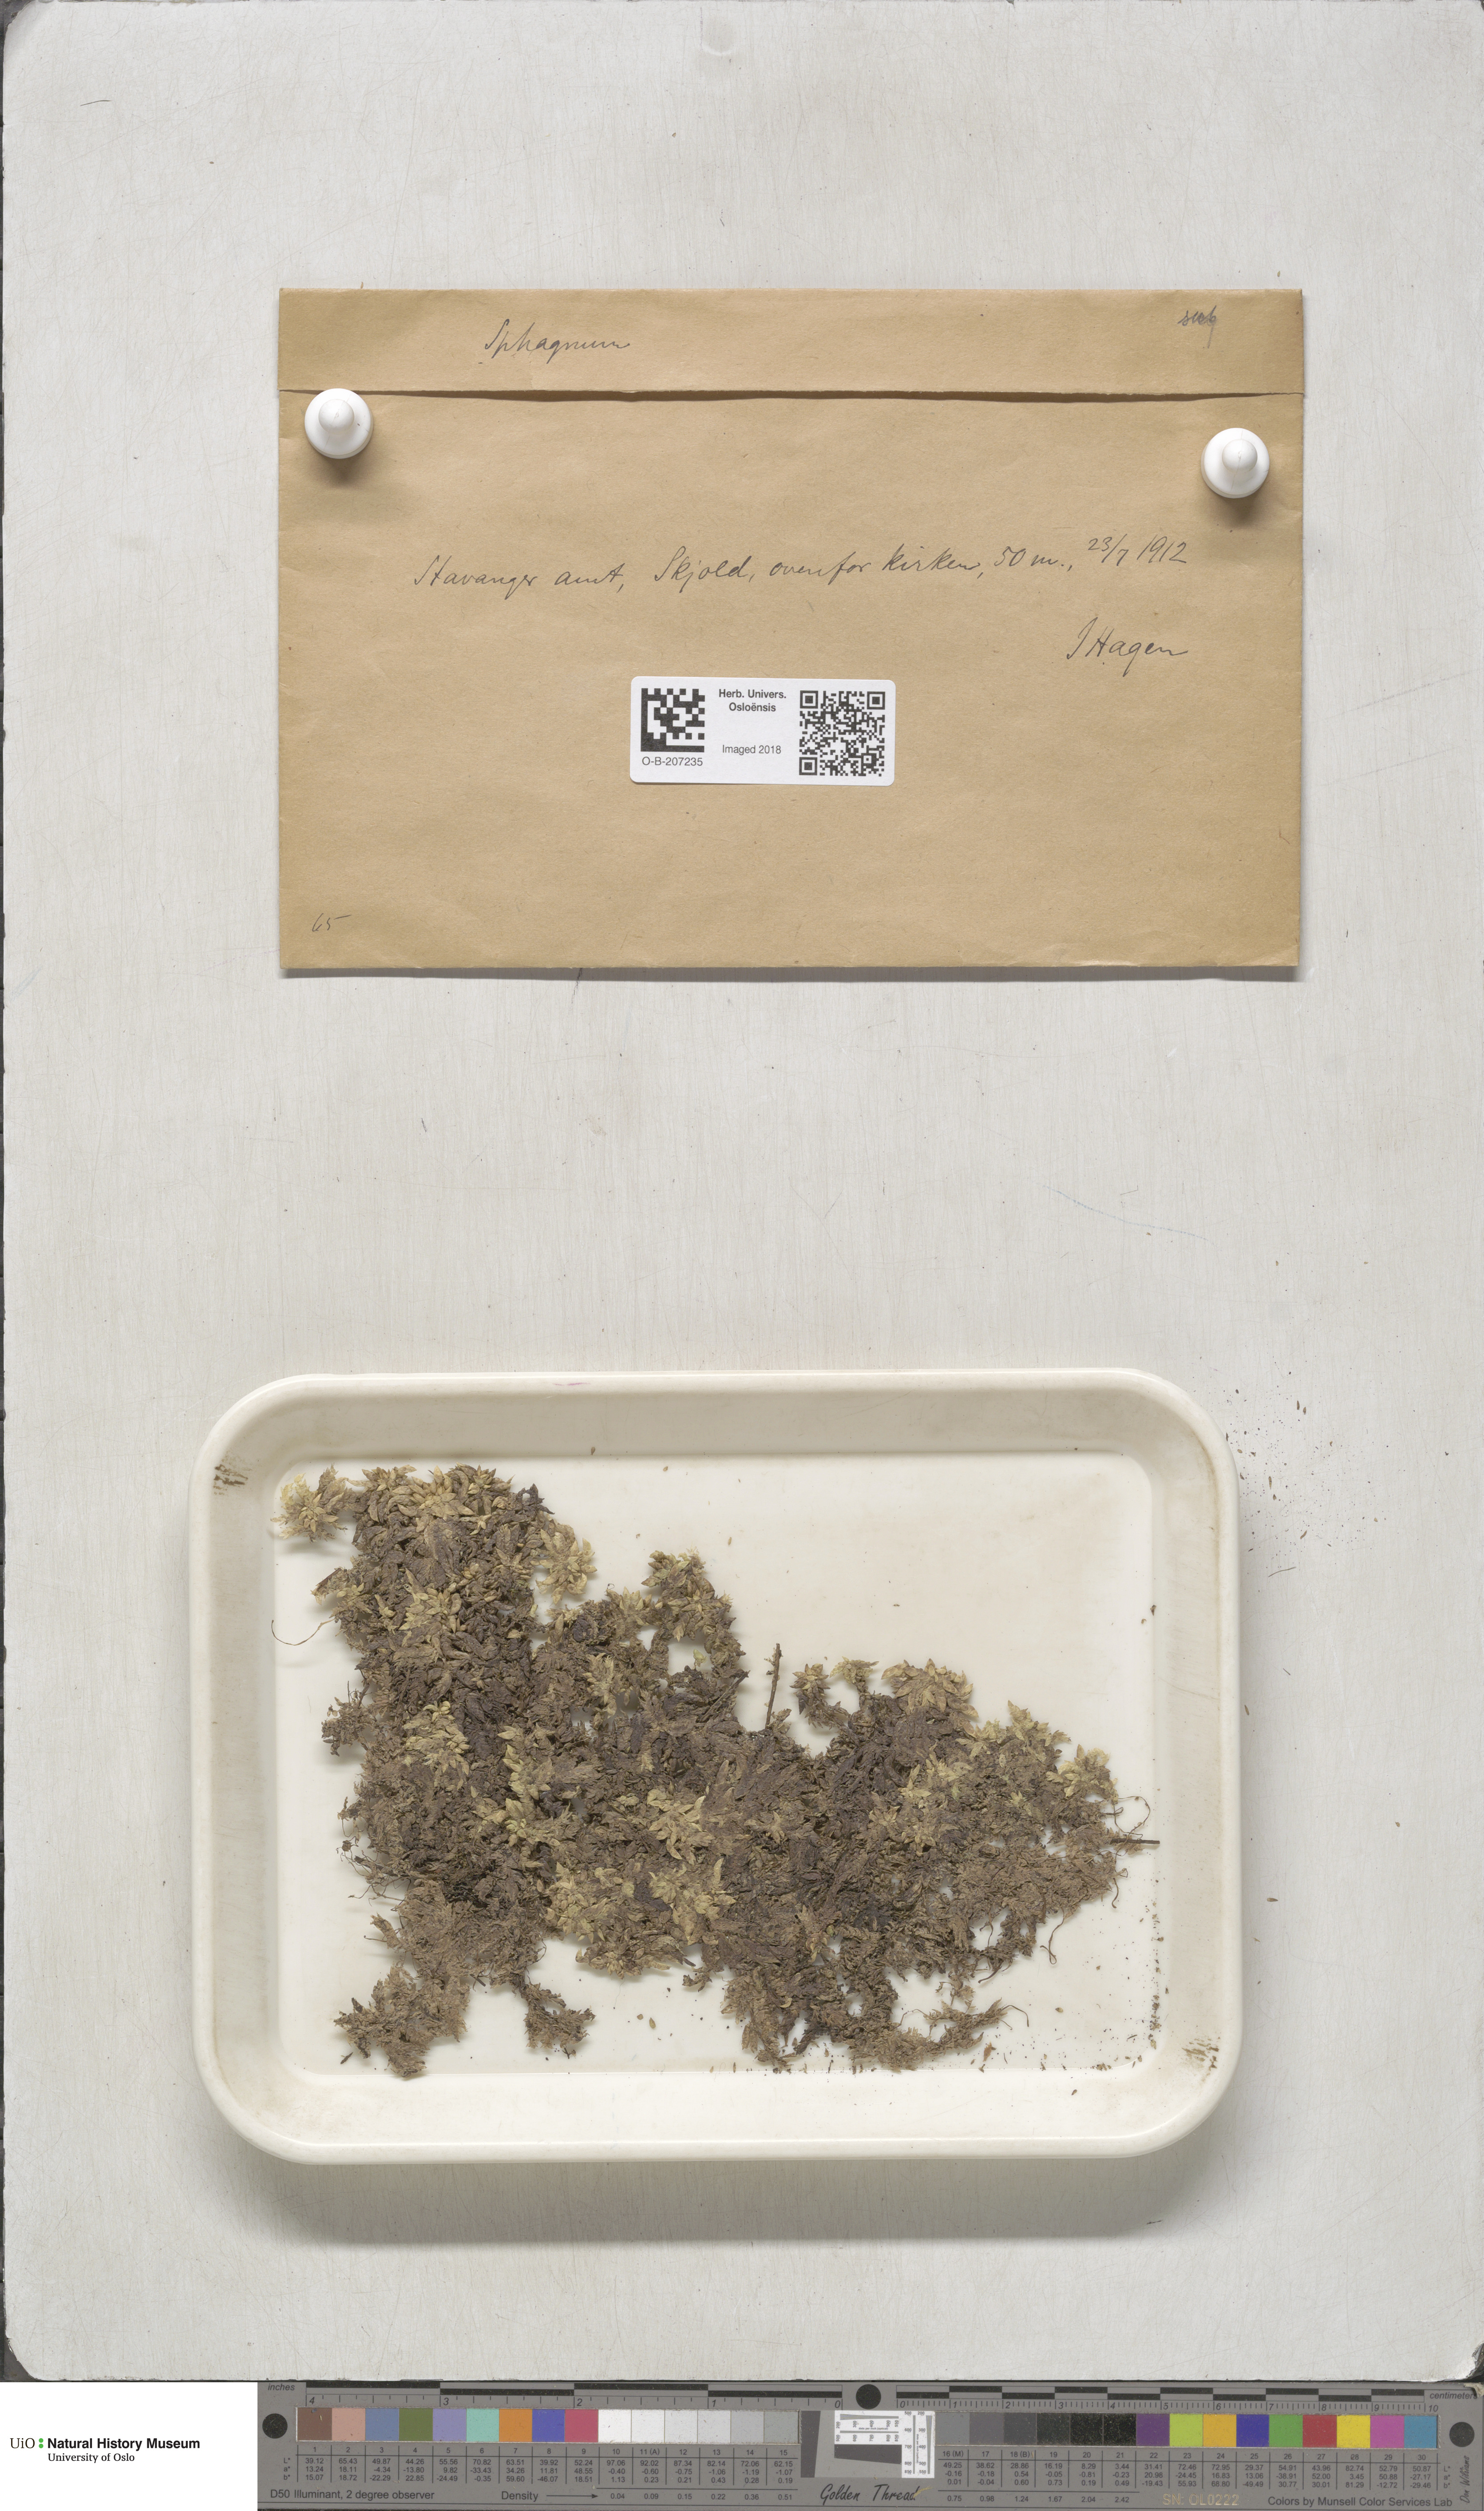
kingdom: Plantae
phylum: Bryophyta
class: Sphagnopsida
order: Sphagnales
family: Sphagnaceae
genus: Sphagnum
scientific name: Sphagnum subsecundum
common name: Orange peat moss
